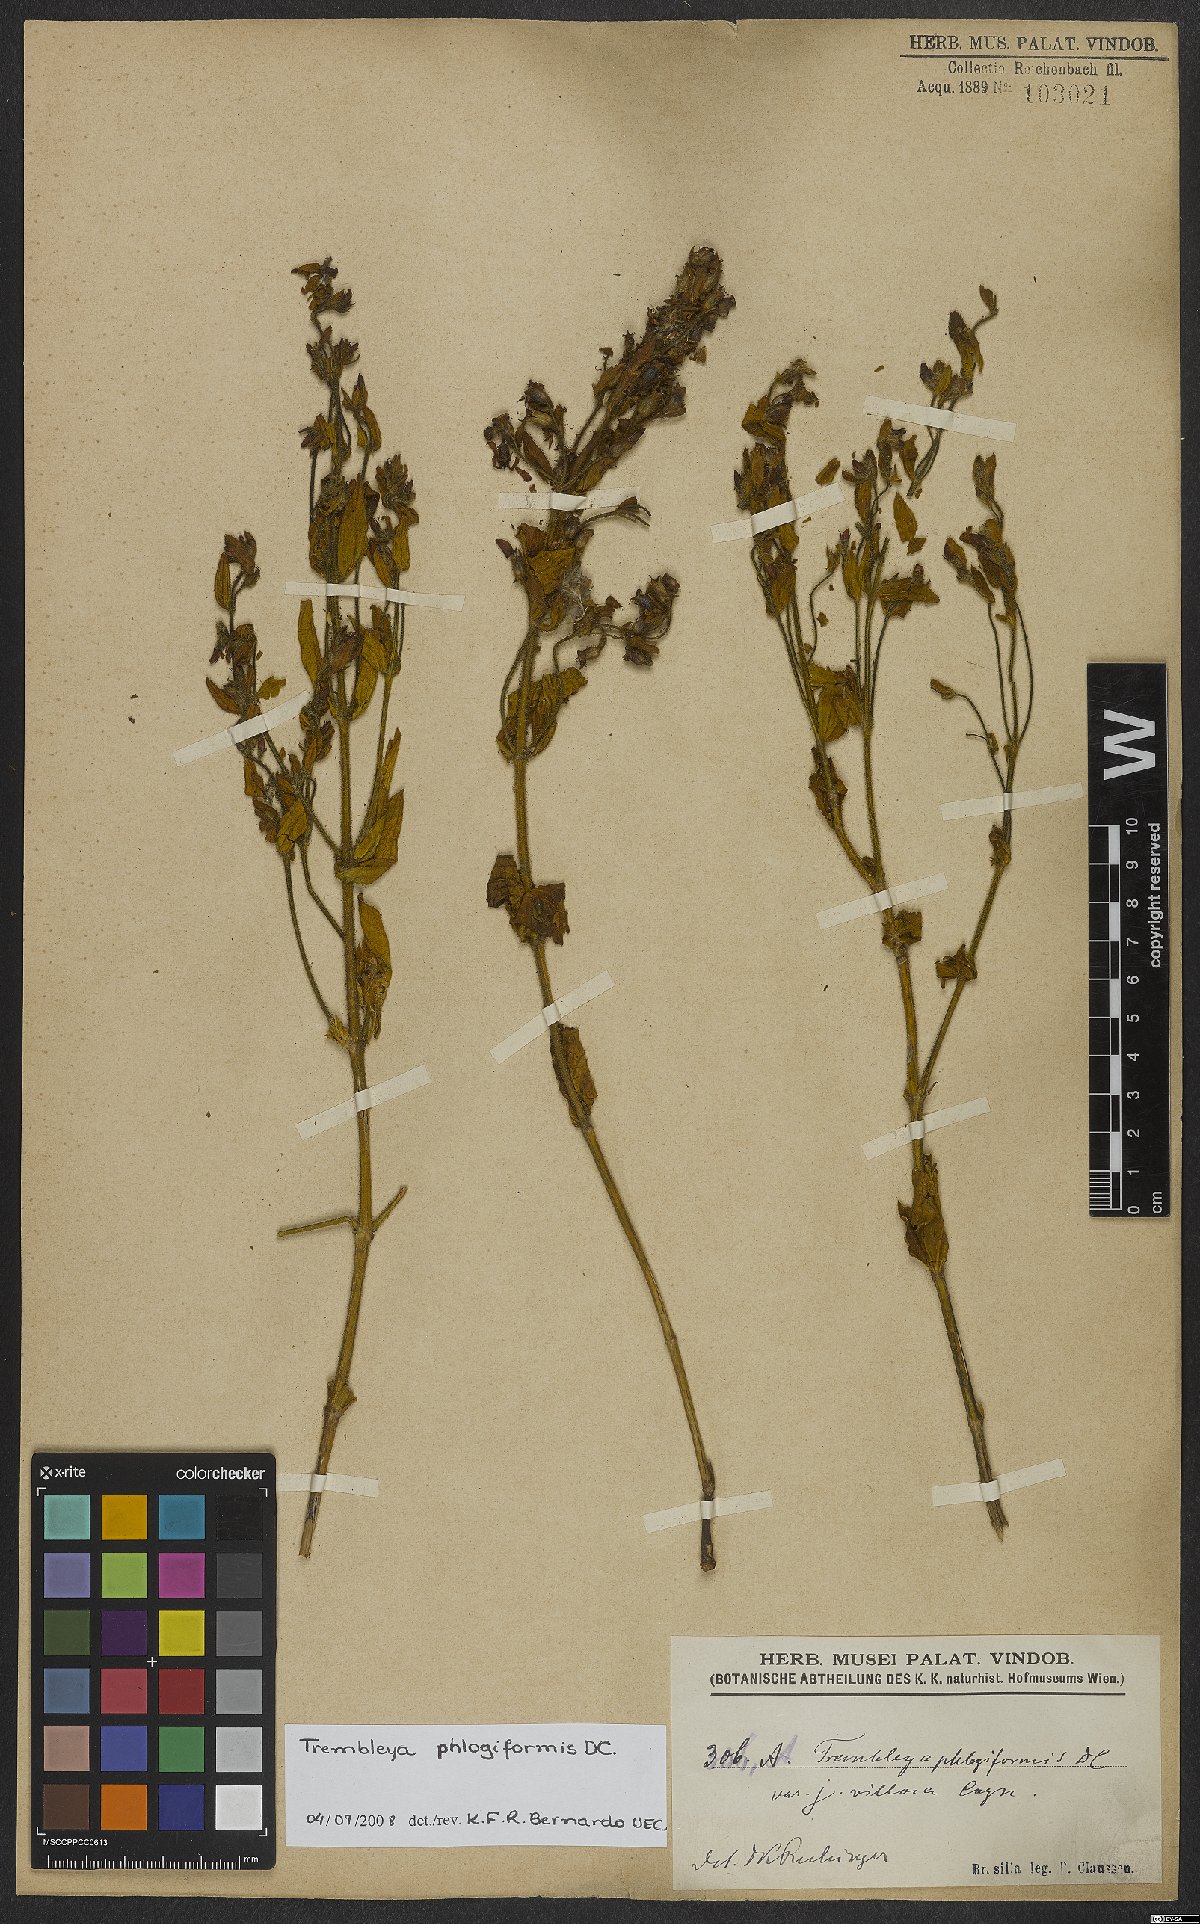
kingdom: Plantae
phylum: Tracheophyta
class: Magnoliopsida
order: Myrtales
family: Melastomataceae
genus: Microlicia
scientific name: Microlicia phlogiformis
